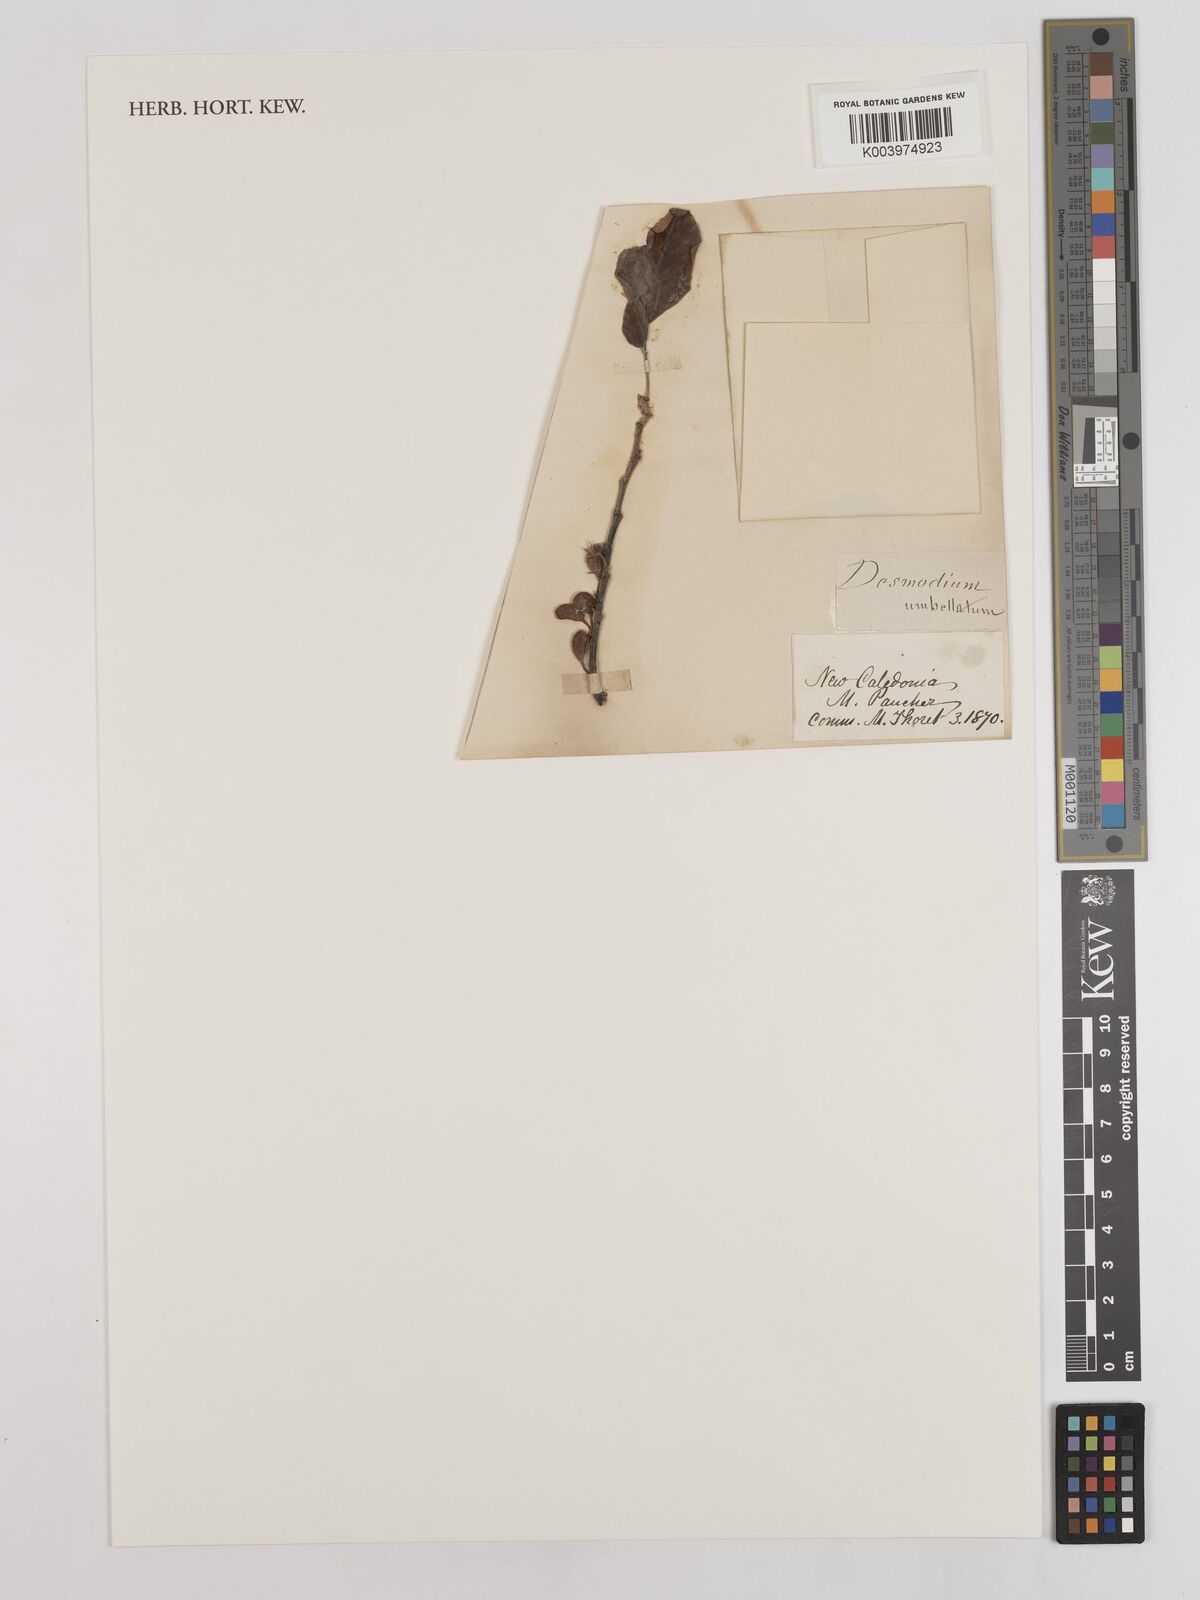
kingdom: Plantae
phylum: Tracheophyta
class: Magnoliopsida
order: Fabales
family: Fabaceae
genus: Dendrolobium
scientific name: Dendrolobium umbellatum
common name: Horsebush
